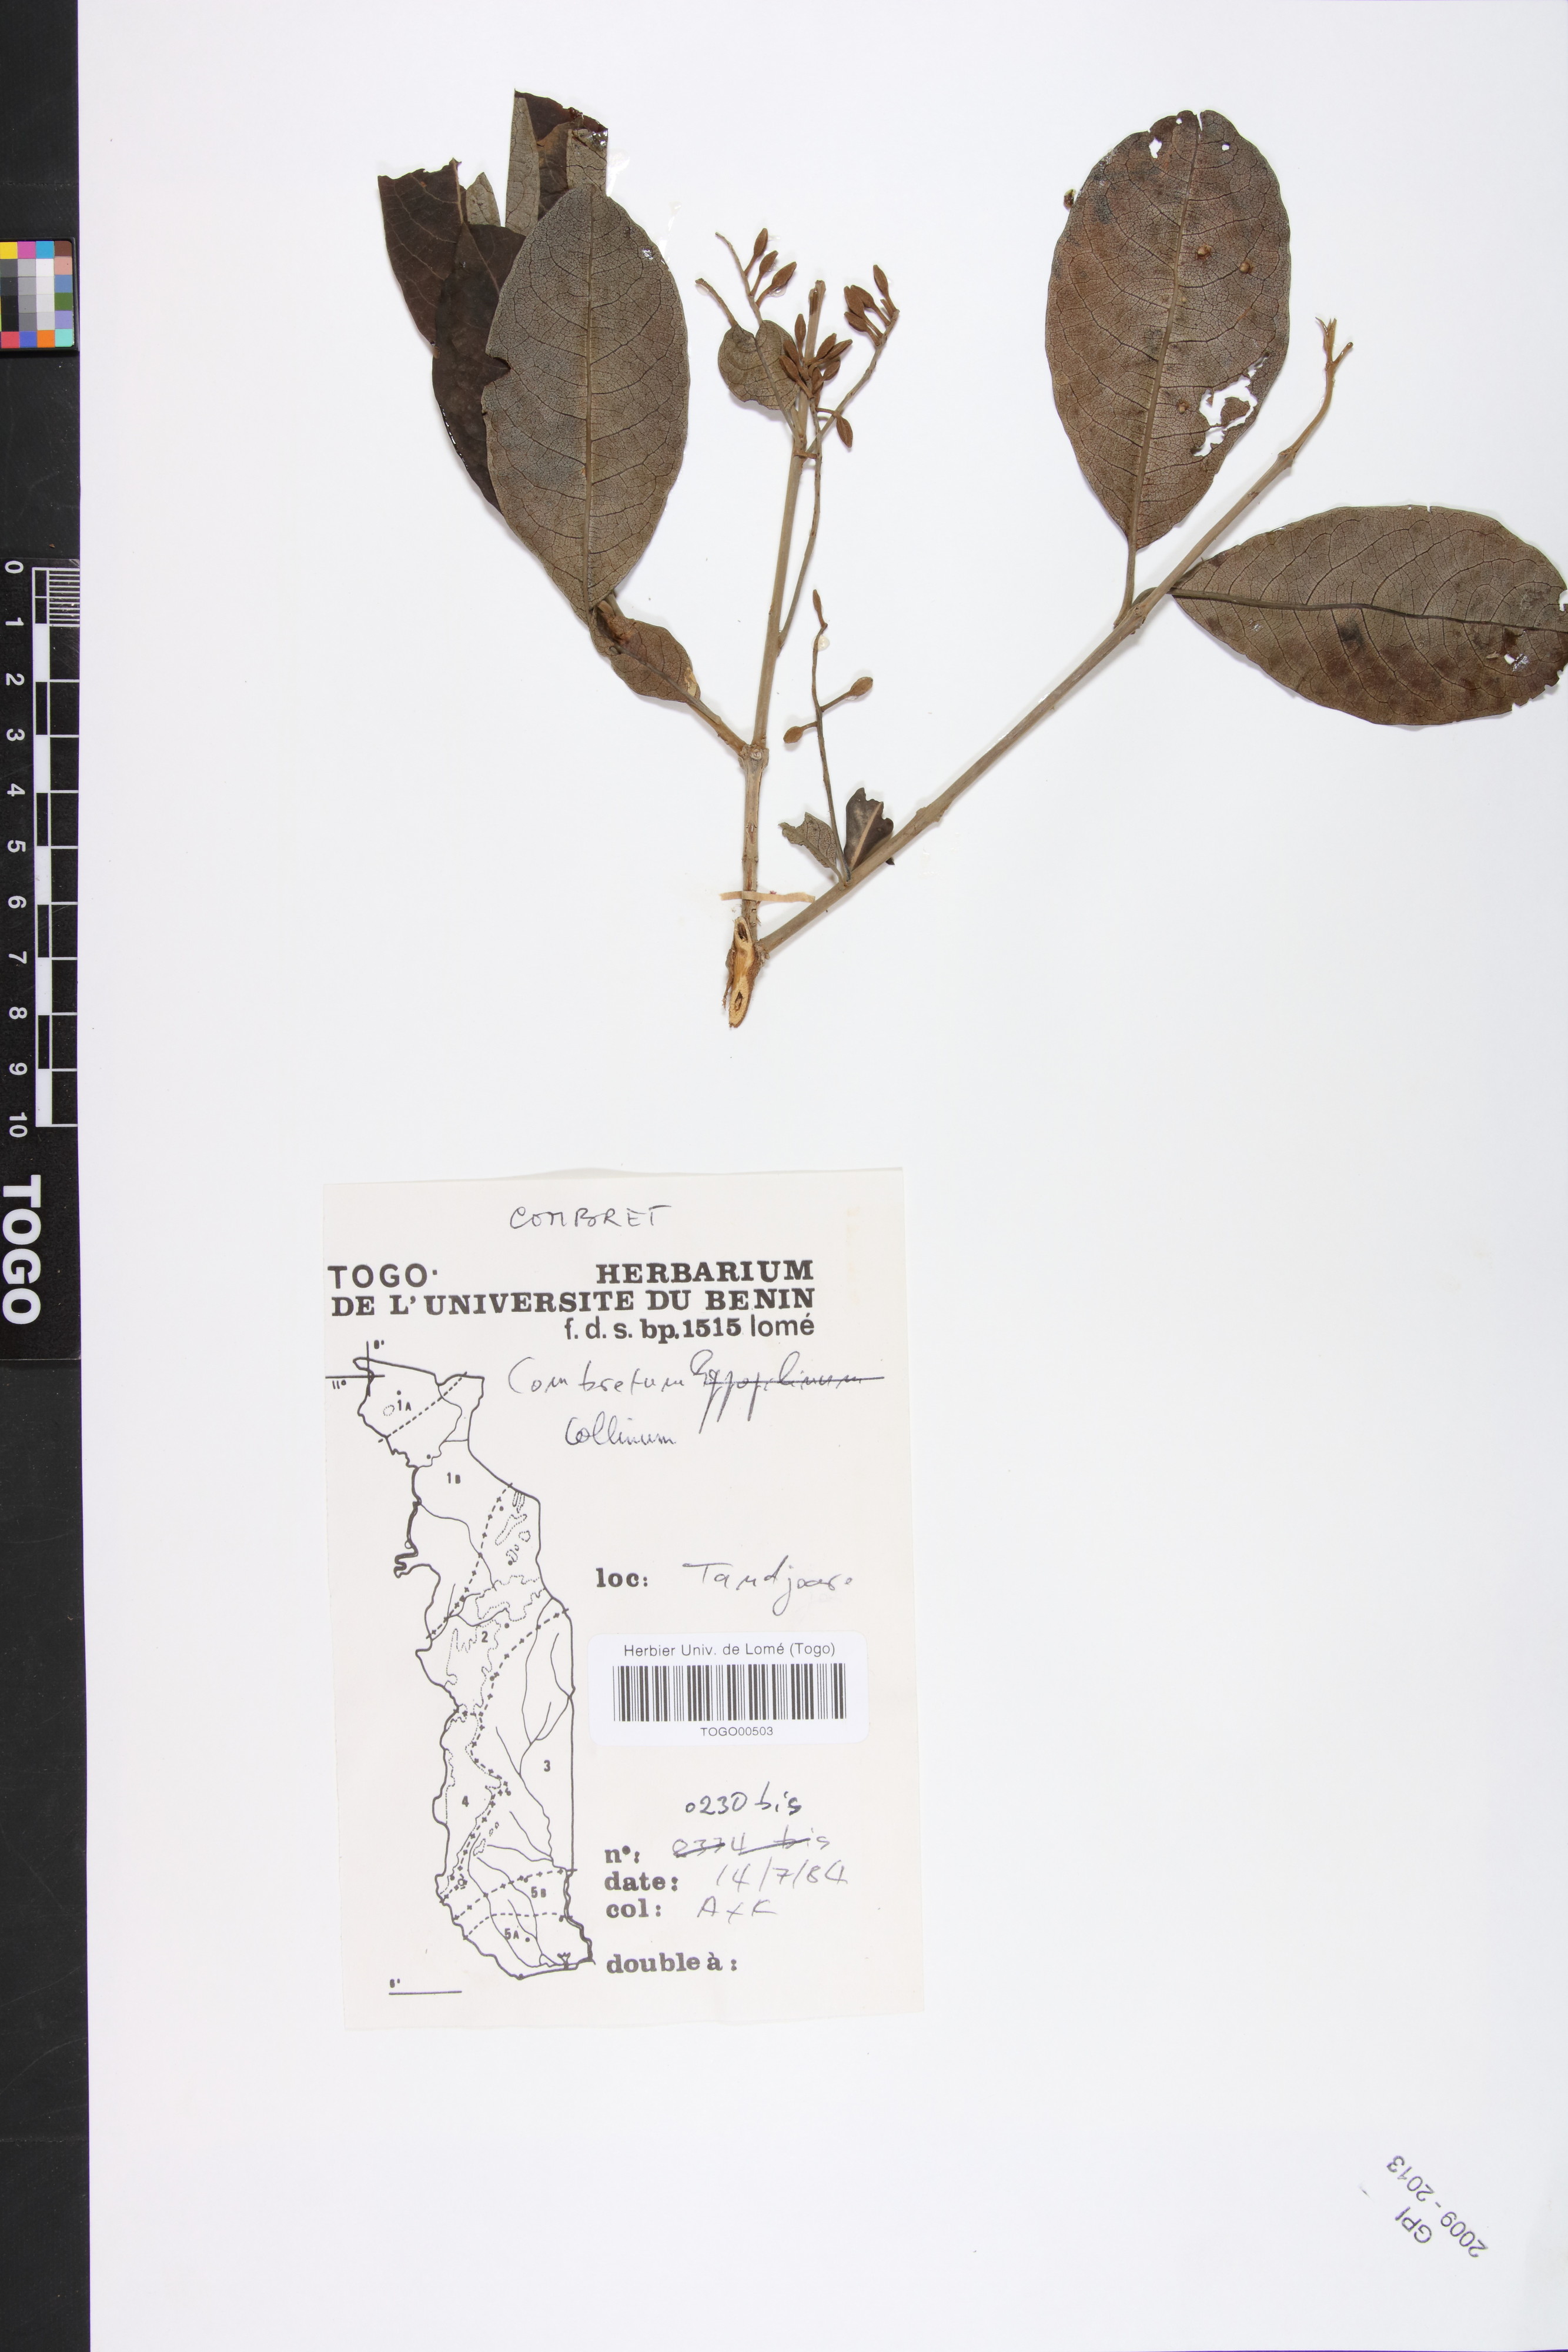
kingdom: Plantae
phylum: Tracheophyta
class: Magnoliopsida
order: Myrtales
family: Combretaceae
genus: Combretum
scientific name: Combretum collinum
